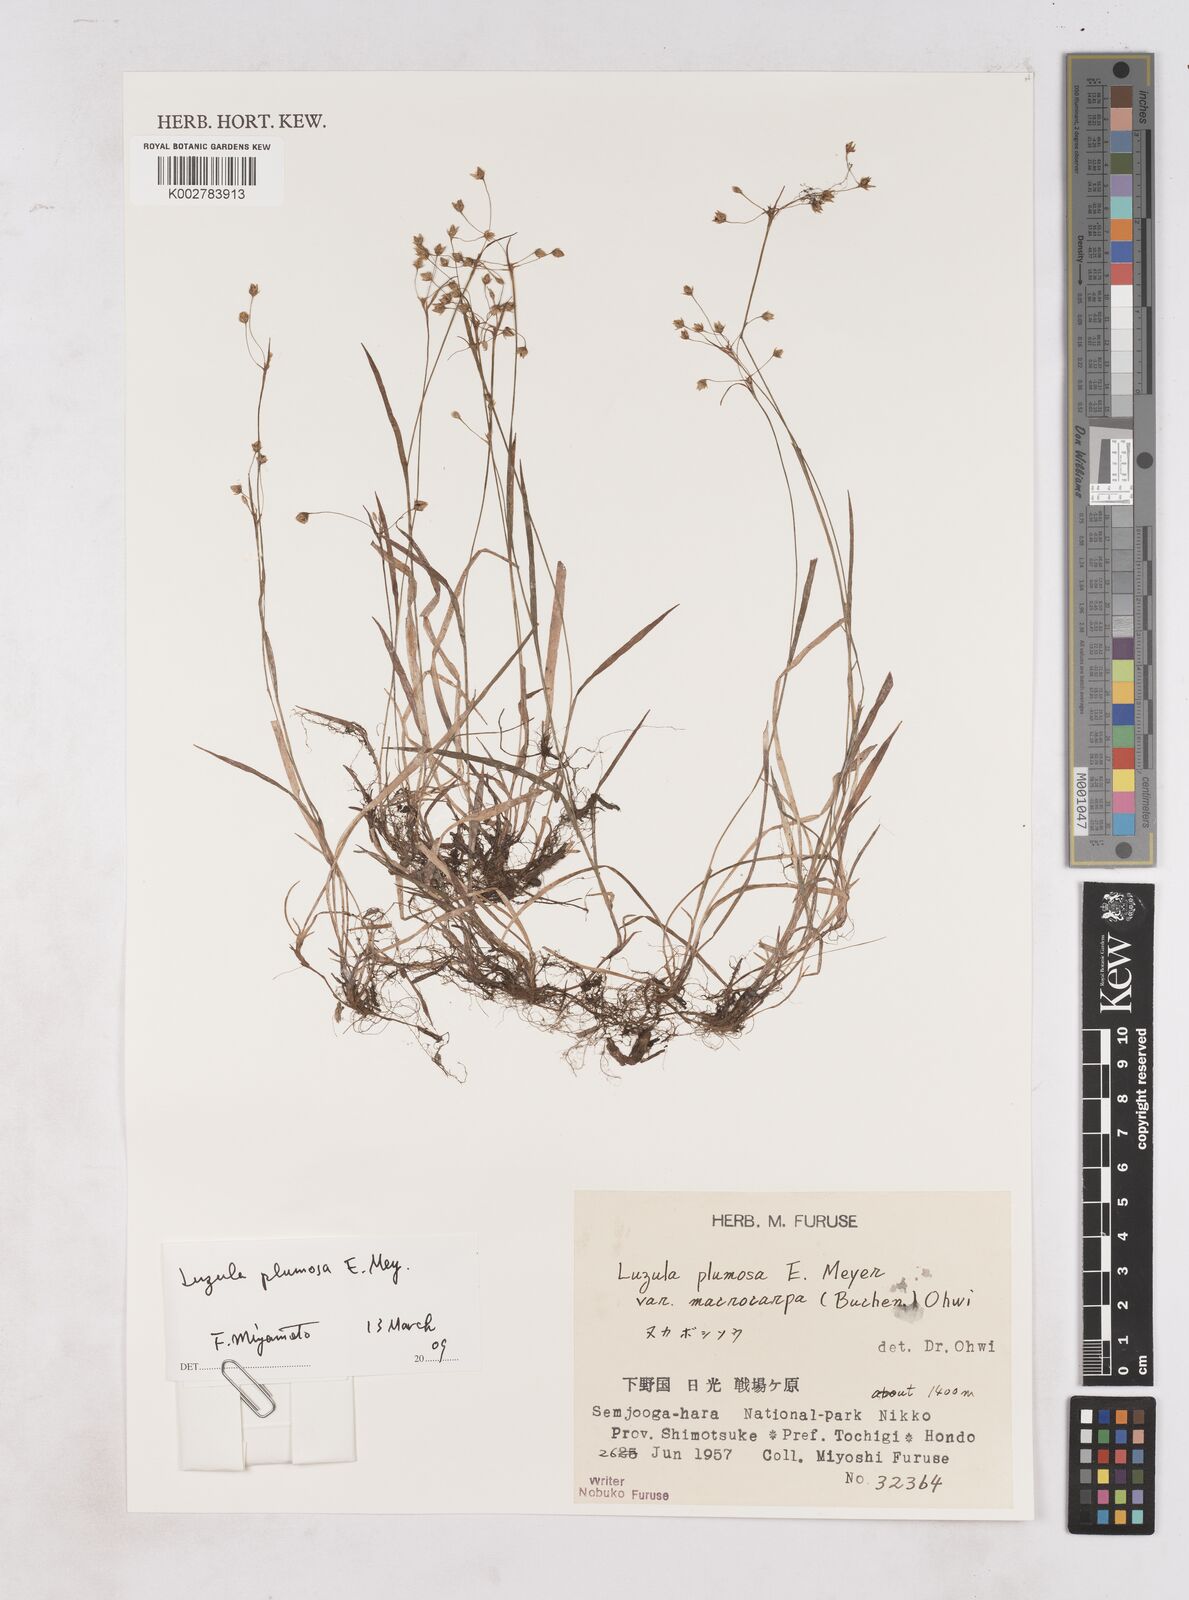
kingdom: Plantae
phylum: Tracheophyta
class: Liliopsida
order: Poales
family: Juncaceae
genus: Luzula
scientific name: Luzula plumosa
